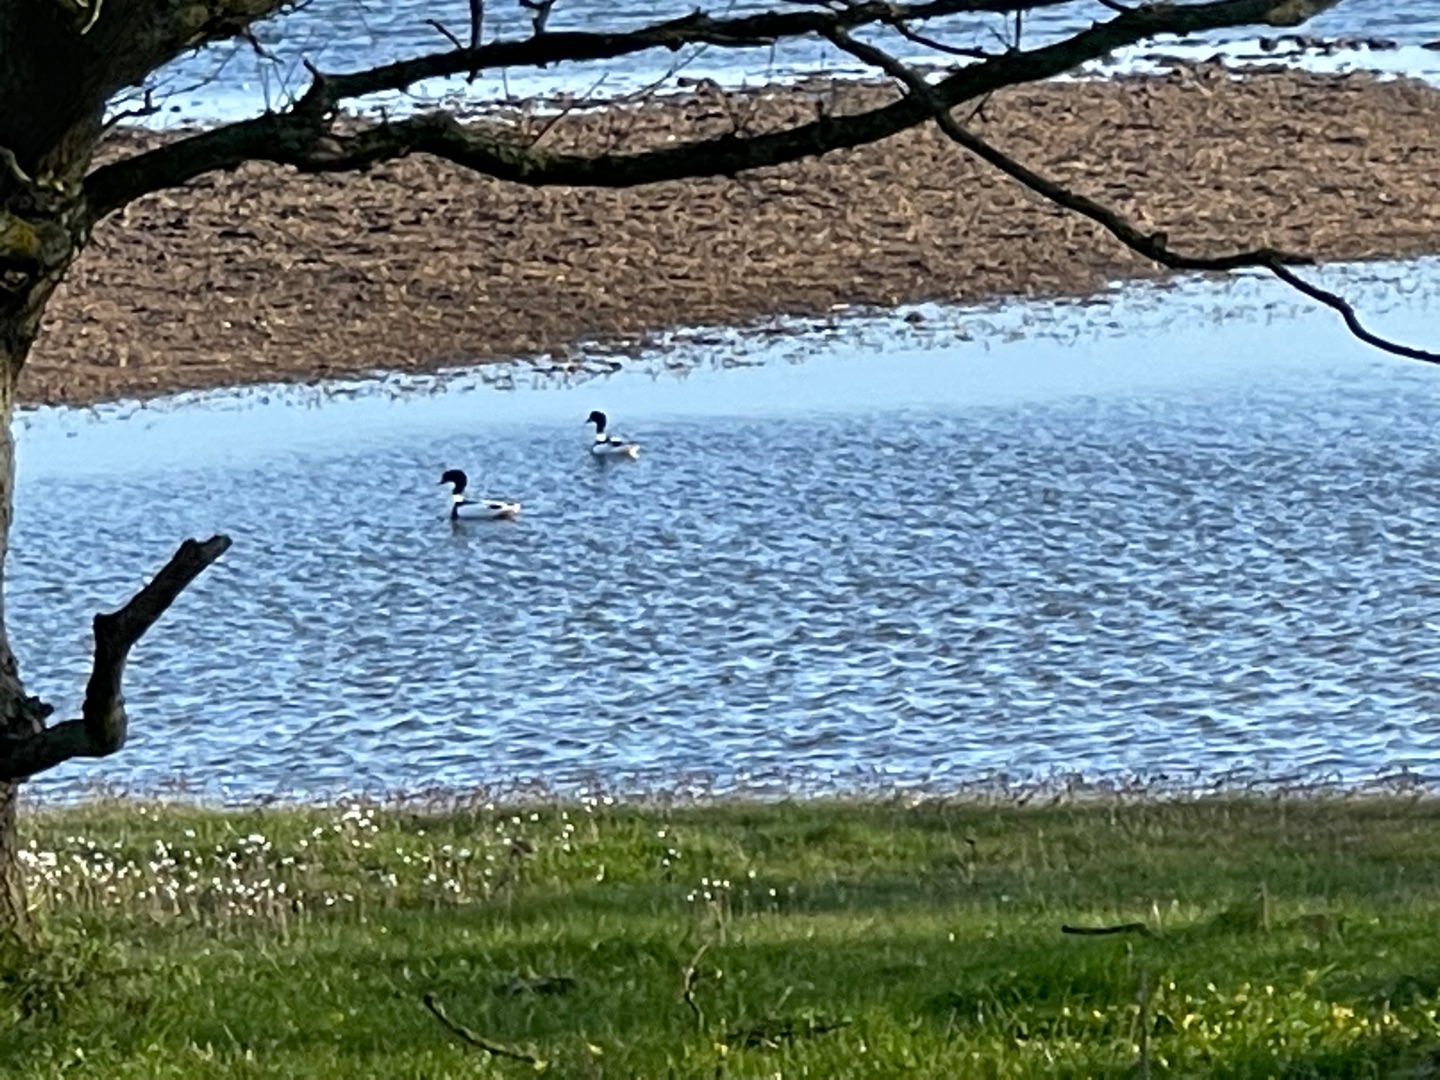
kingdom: Animalia
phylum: Chordata
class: Aves
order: Anseriformes
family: Anatidae
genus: Tadorna
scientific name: Tadorna tadorna
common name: Gravand
